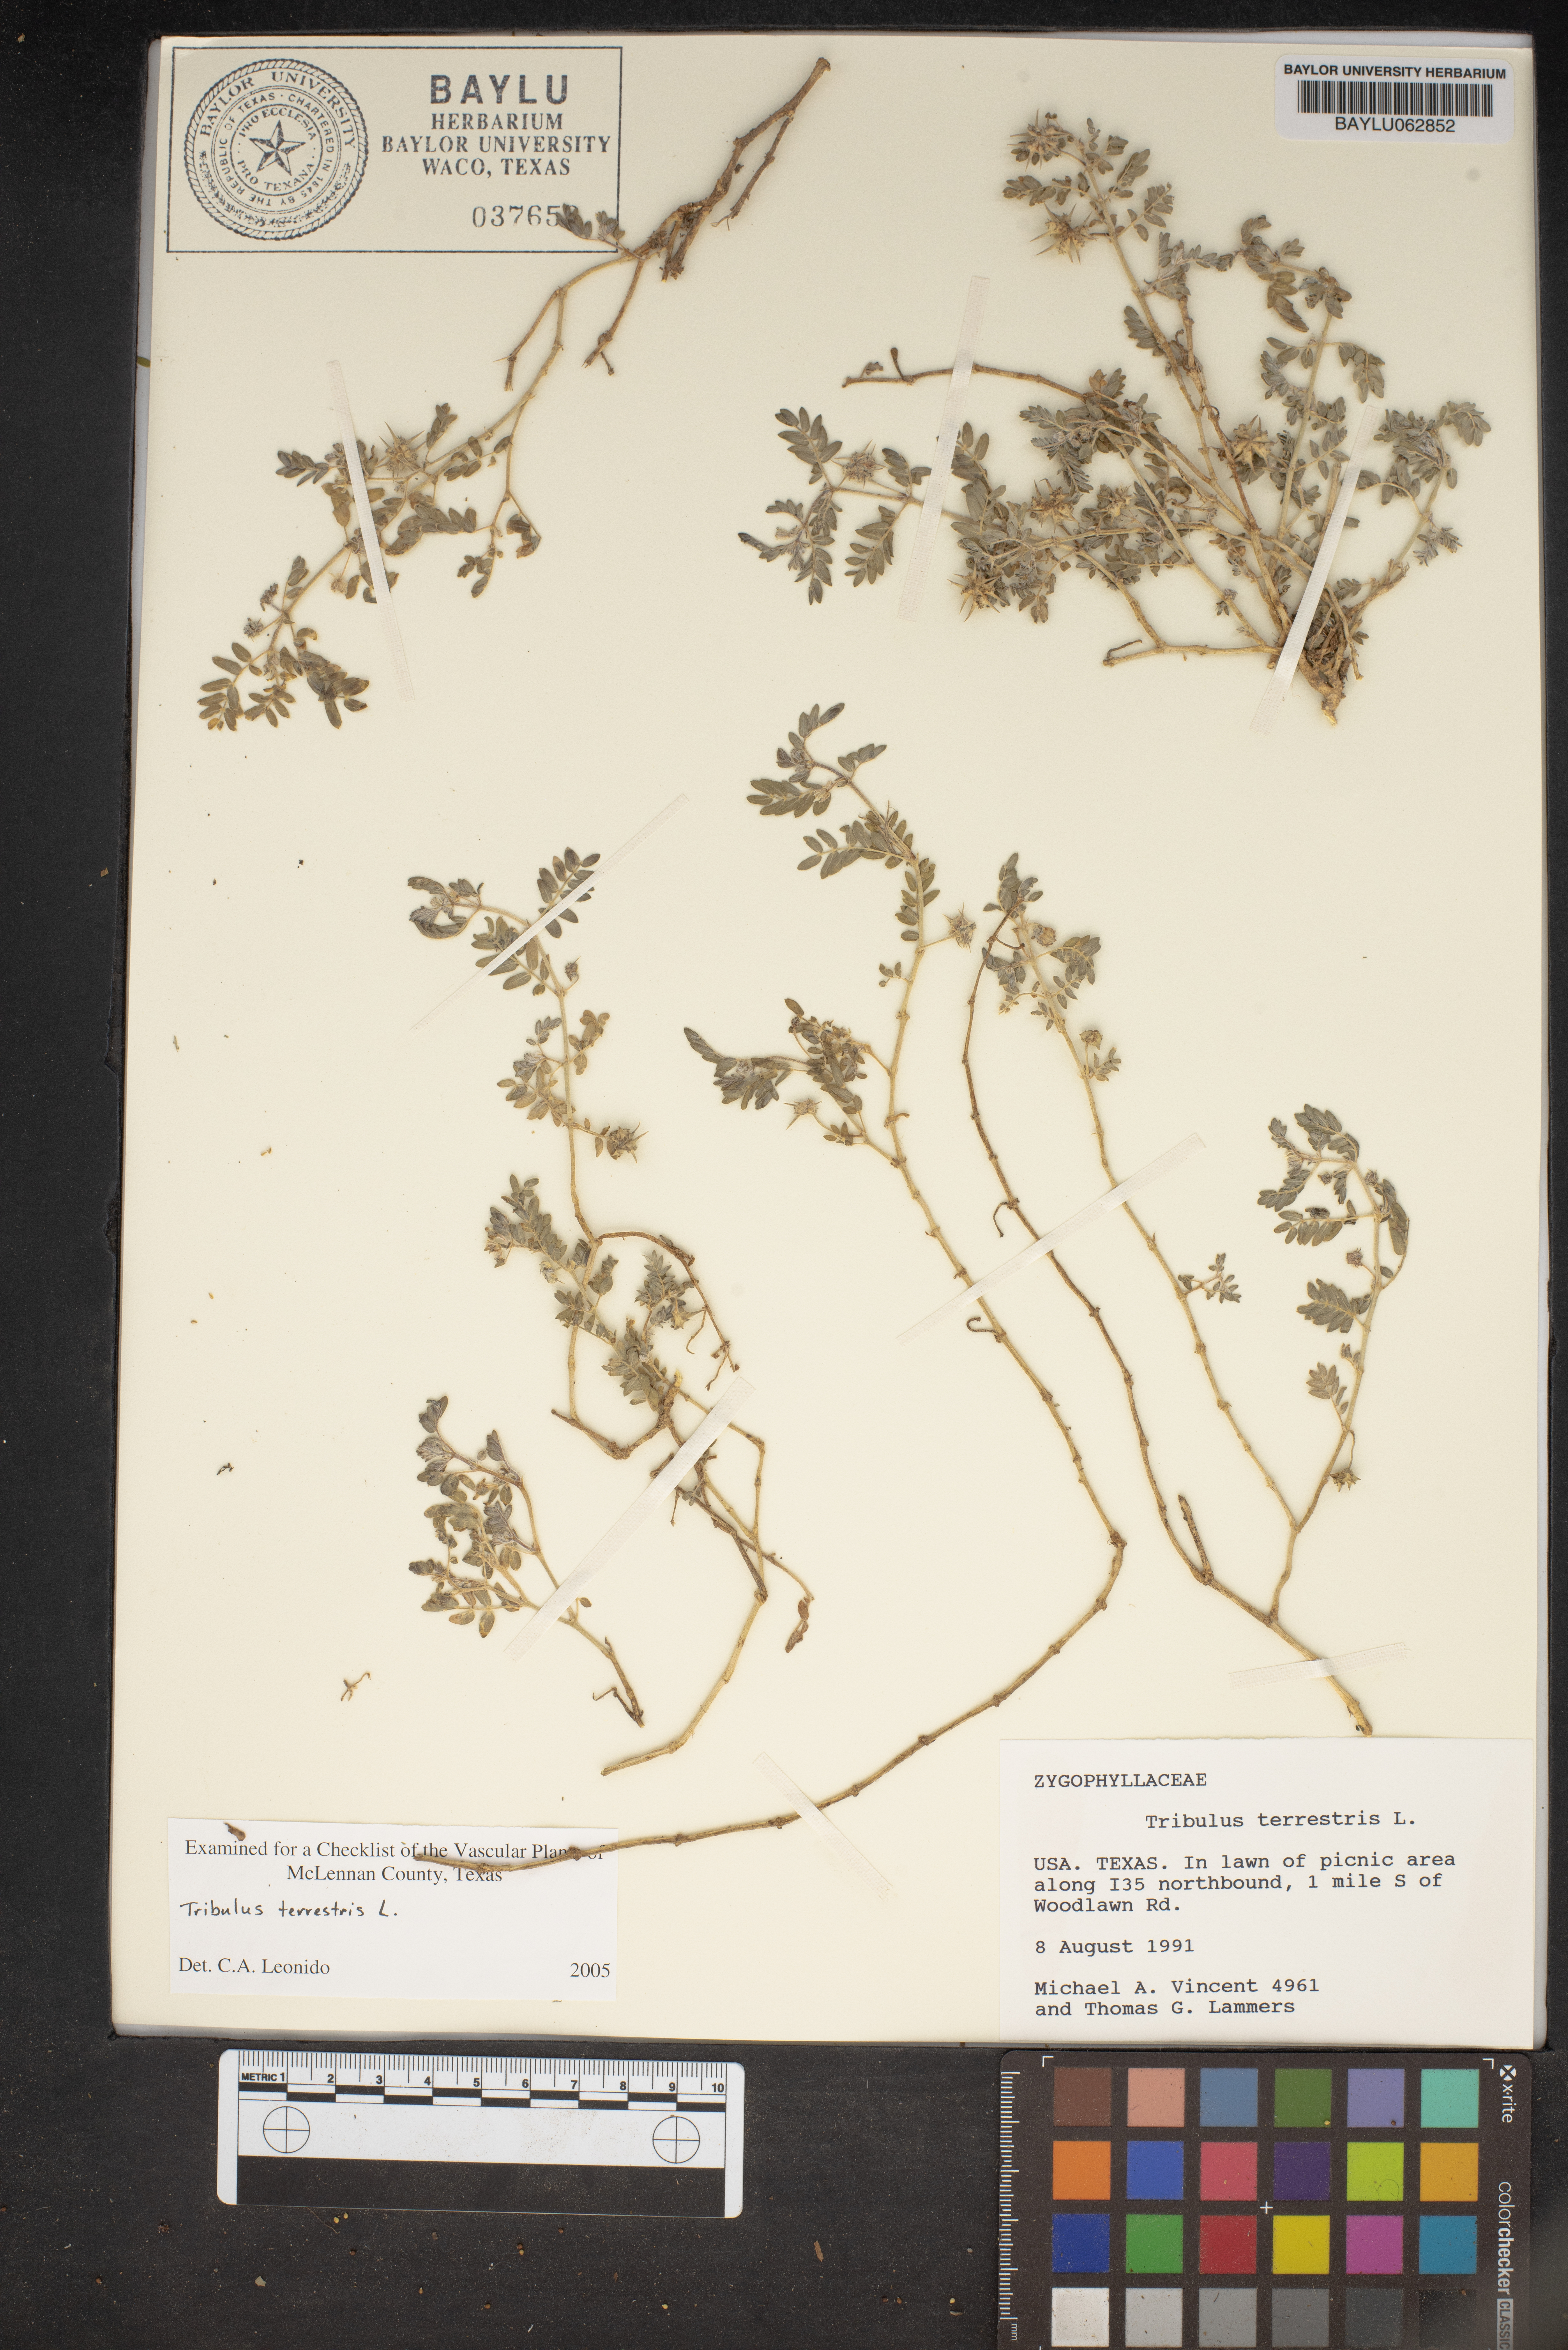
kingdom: Plantae
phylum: Tracheophyta
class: Magnoliopsida
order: Zygophyllales
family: Zygophyllaceae
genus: Tribulus
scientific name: Tribulus terrestris
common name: Puncturevine
